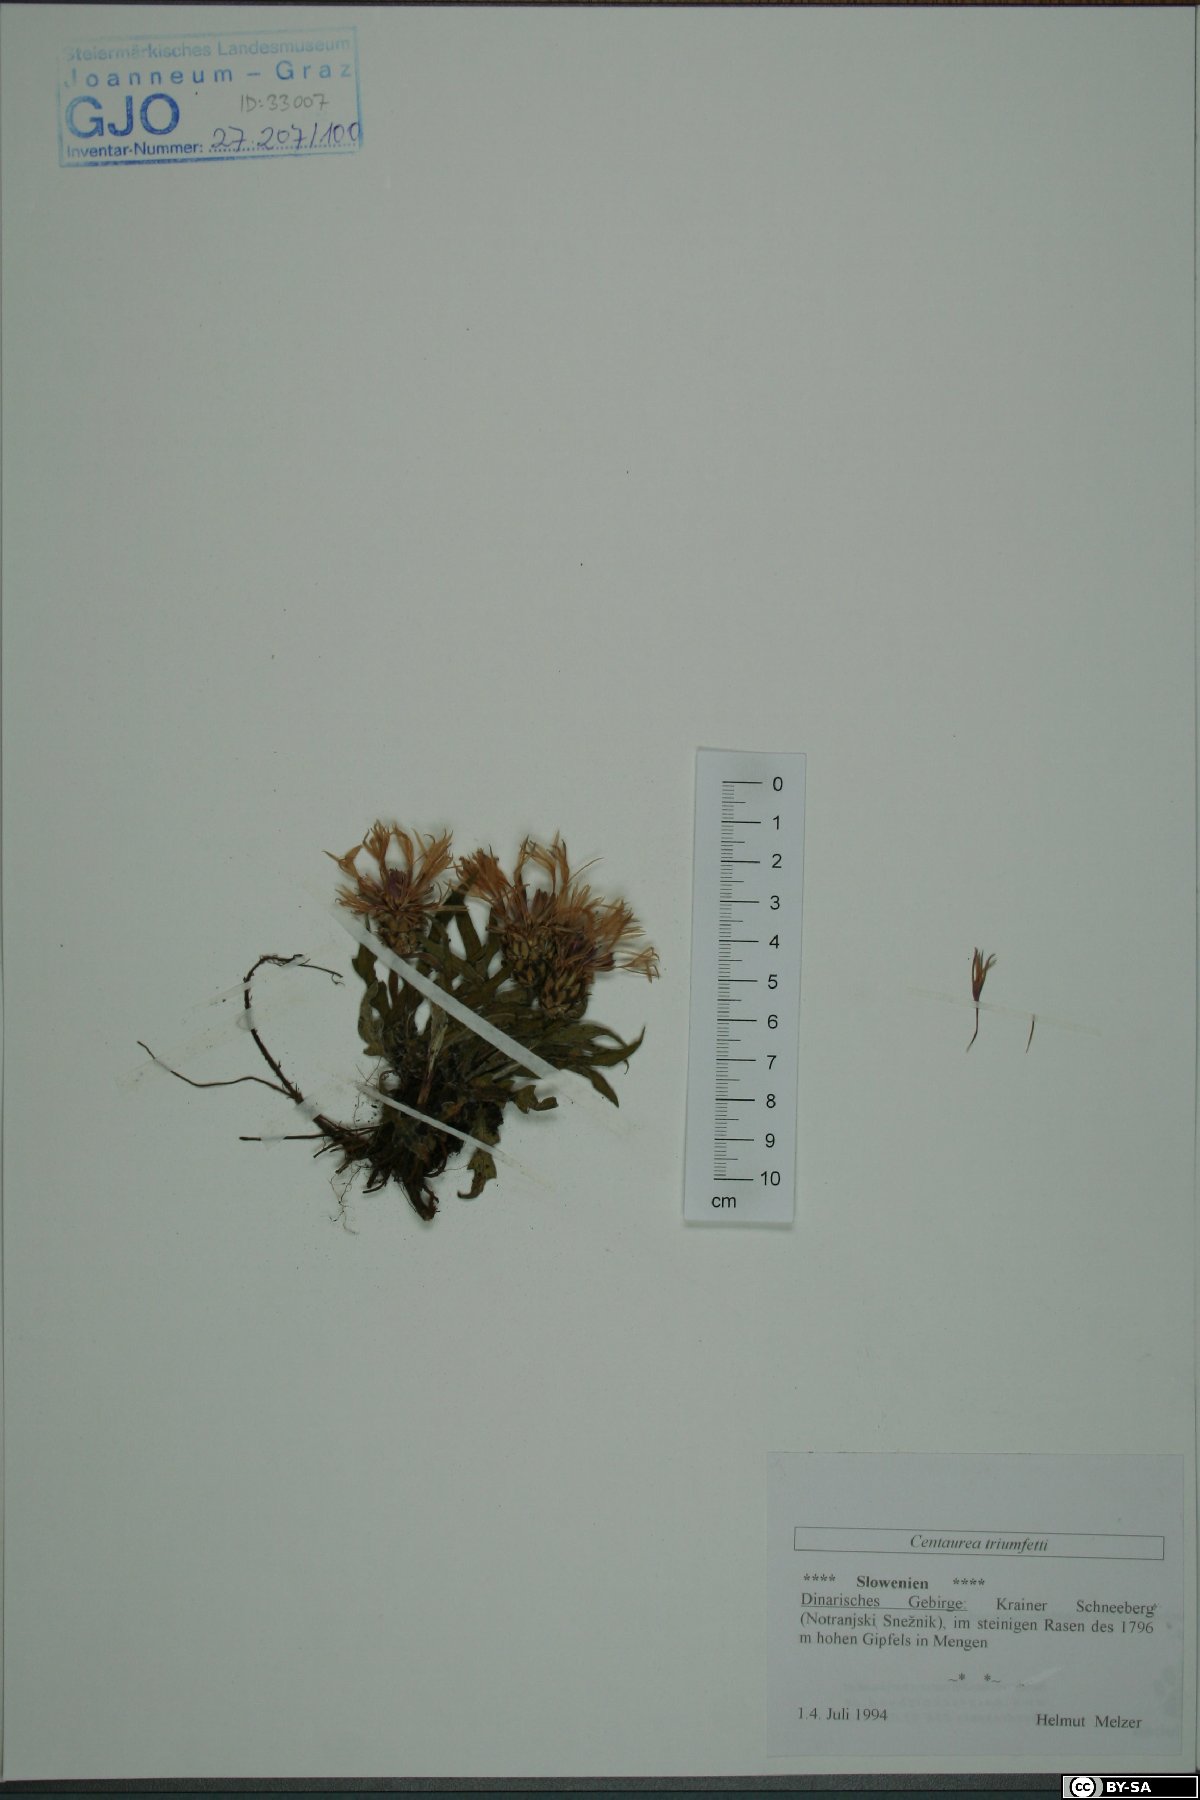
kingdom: Plantae
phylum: Tracheophyta
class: Magnoliopsida
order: Asterales
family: Asteraceae
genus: Centaurea
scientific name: Centaurea triumfettii
